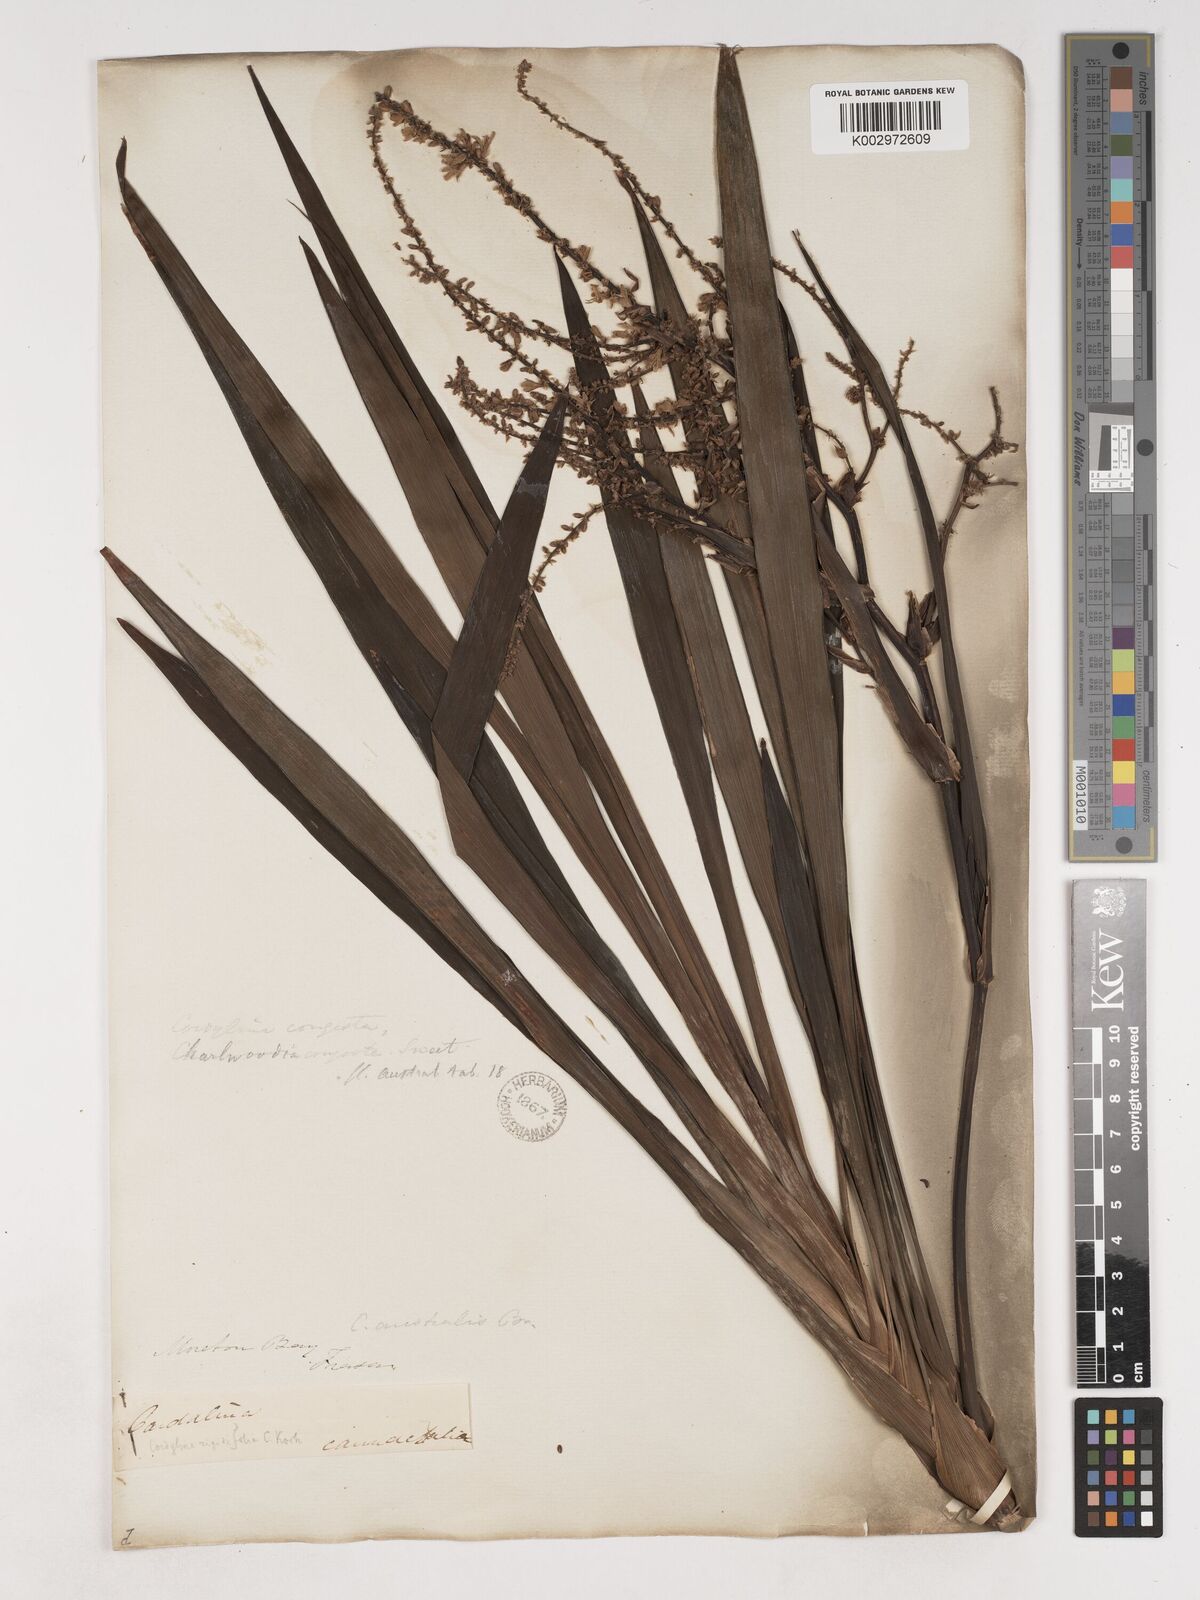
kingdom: Plantae
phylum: Tracheophyta
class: Liliopsida
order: Asparagales
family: Asparagaceae
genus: Cordyline
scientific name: Cordyline stricta
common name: Narrow-leaf palm-lily
